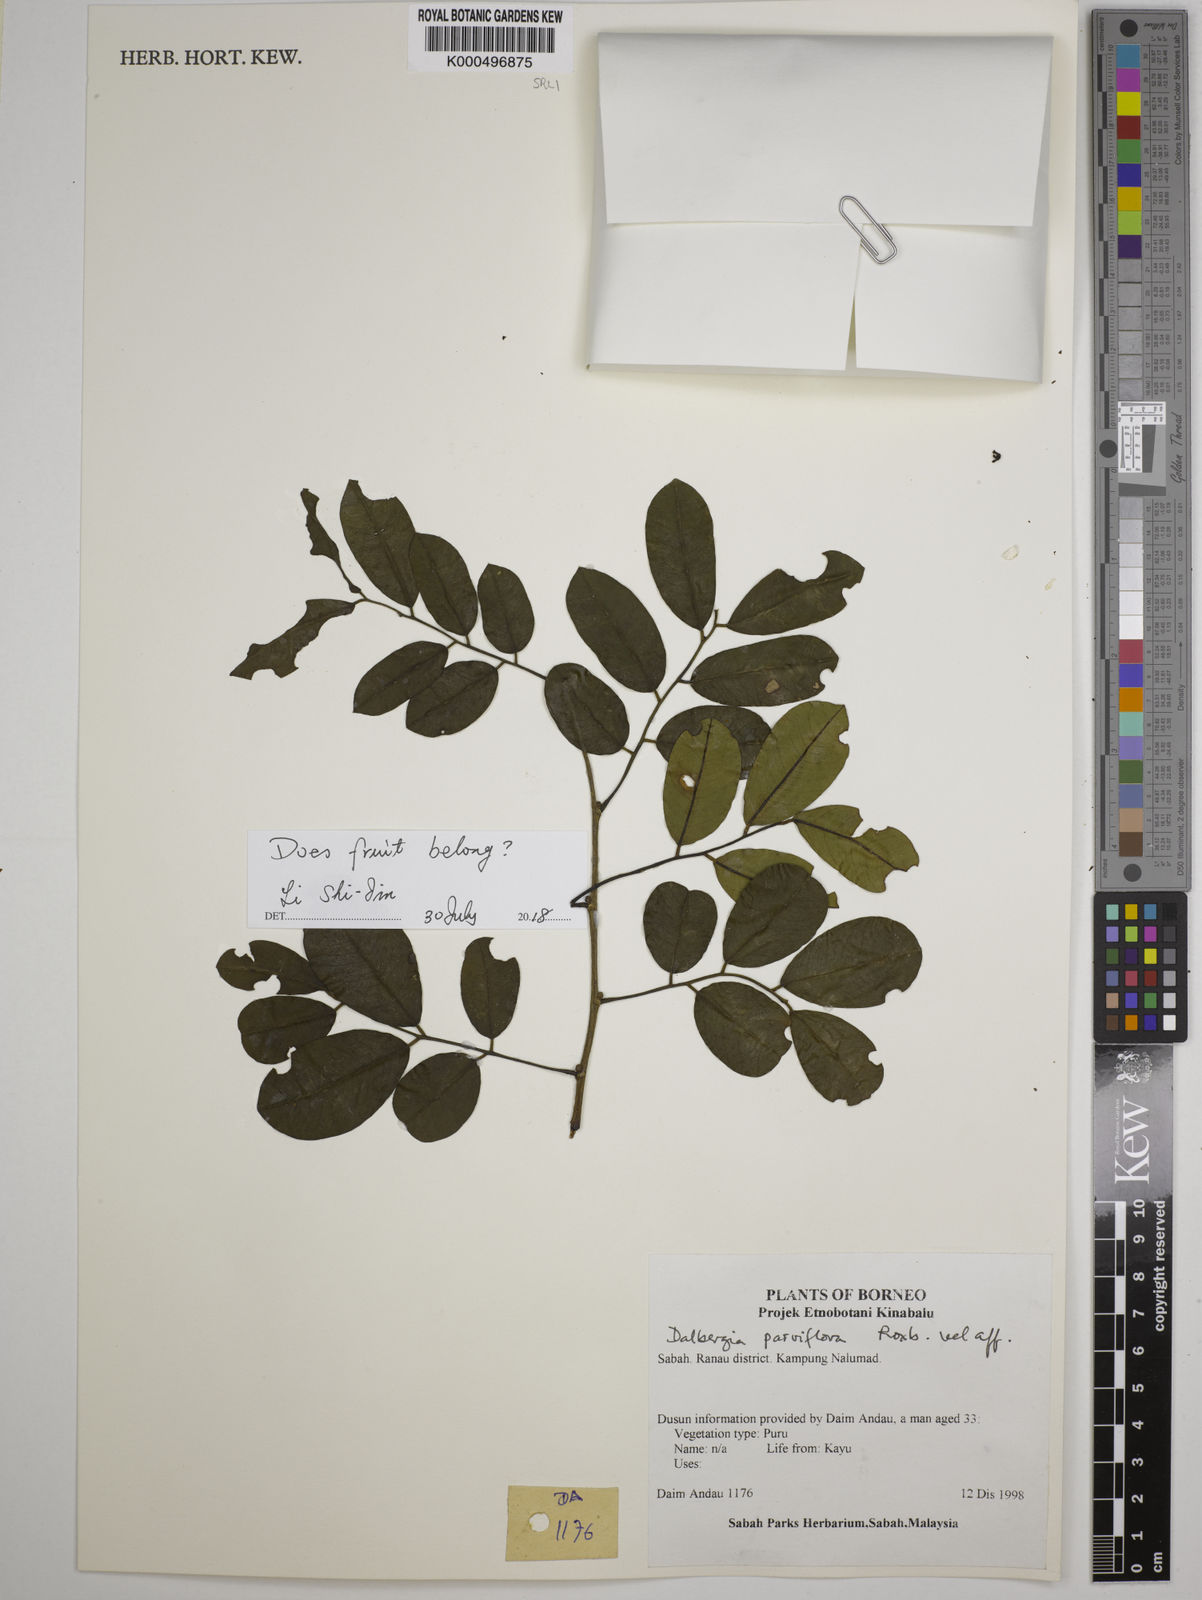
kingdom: Plantae
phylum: Tracheophyta
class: Magnoliopsida
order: Fabales
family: Fabaceae
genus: Dalbergia
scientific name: Dalbergia parviflora
